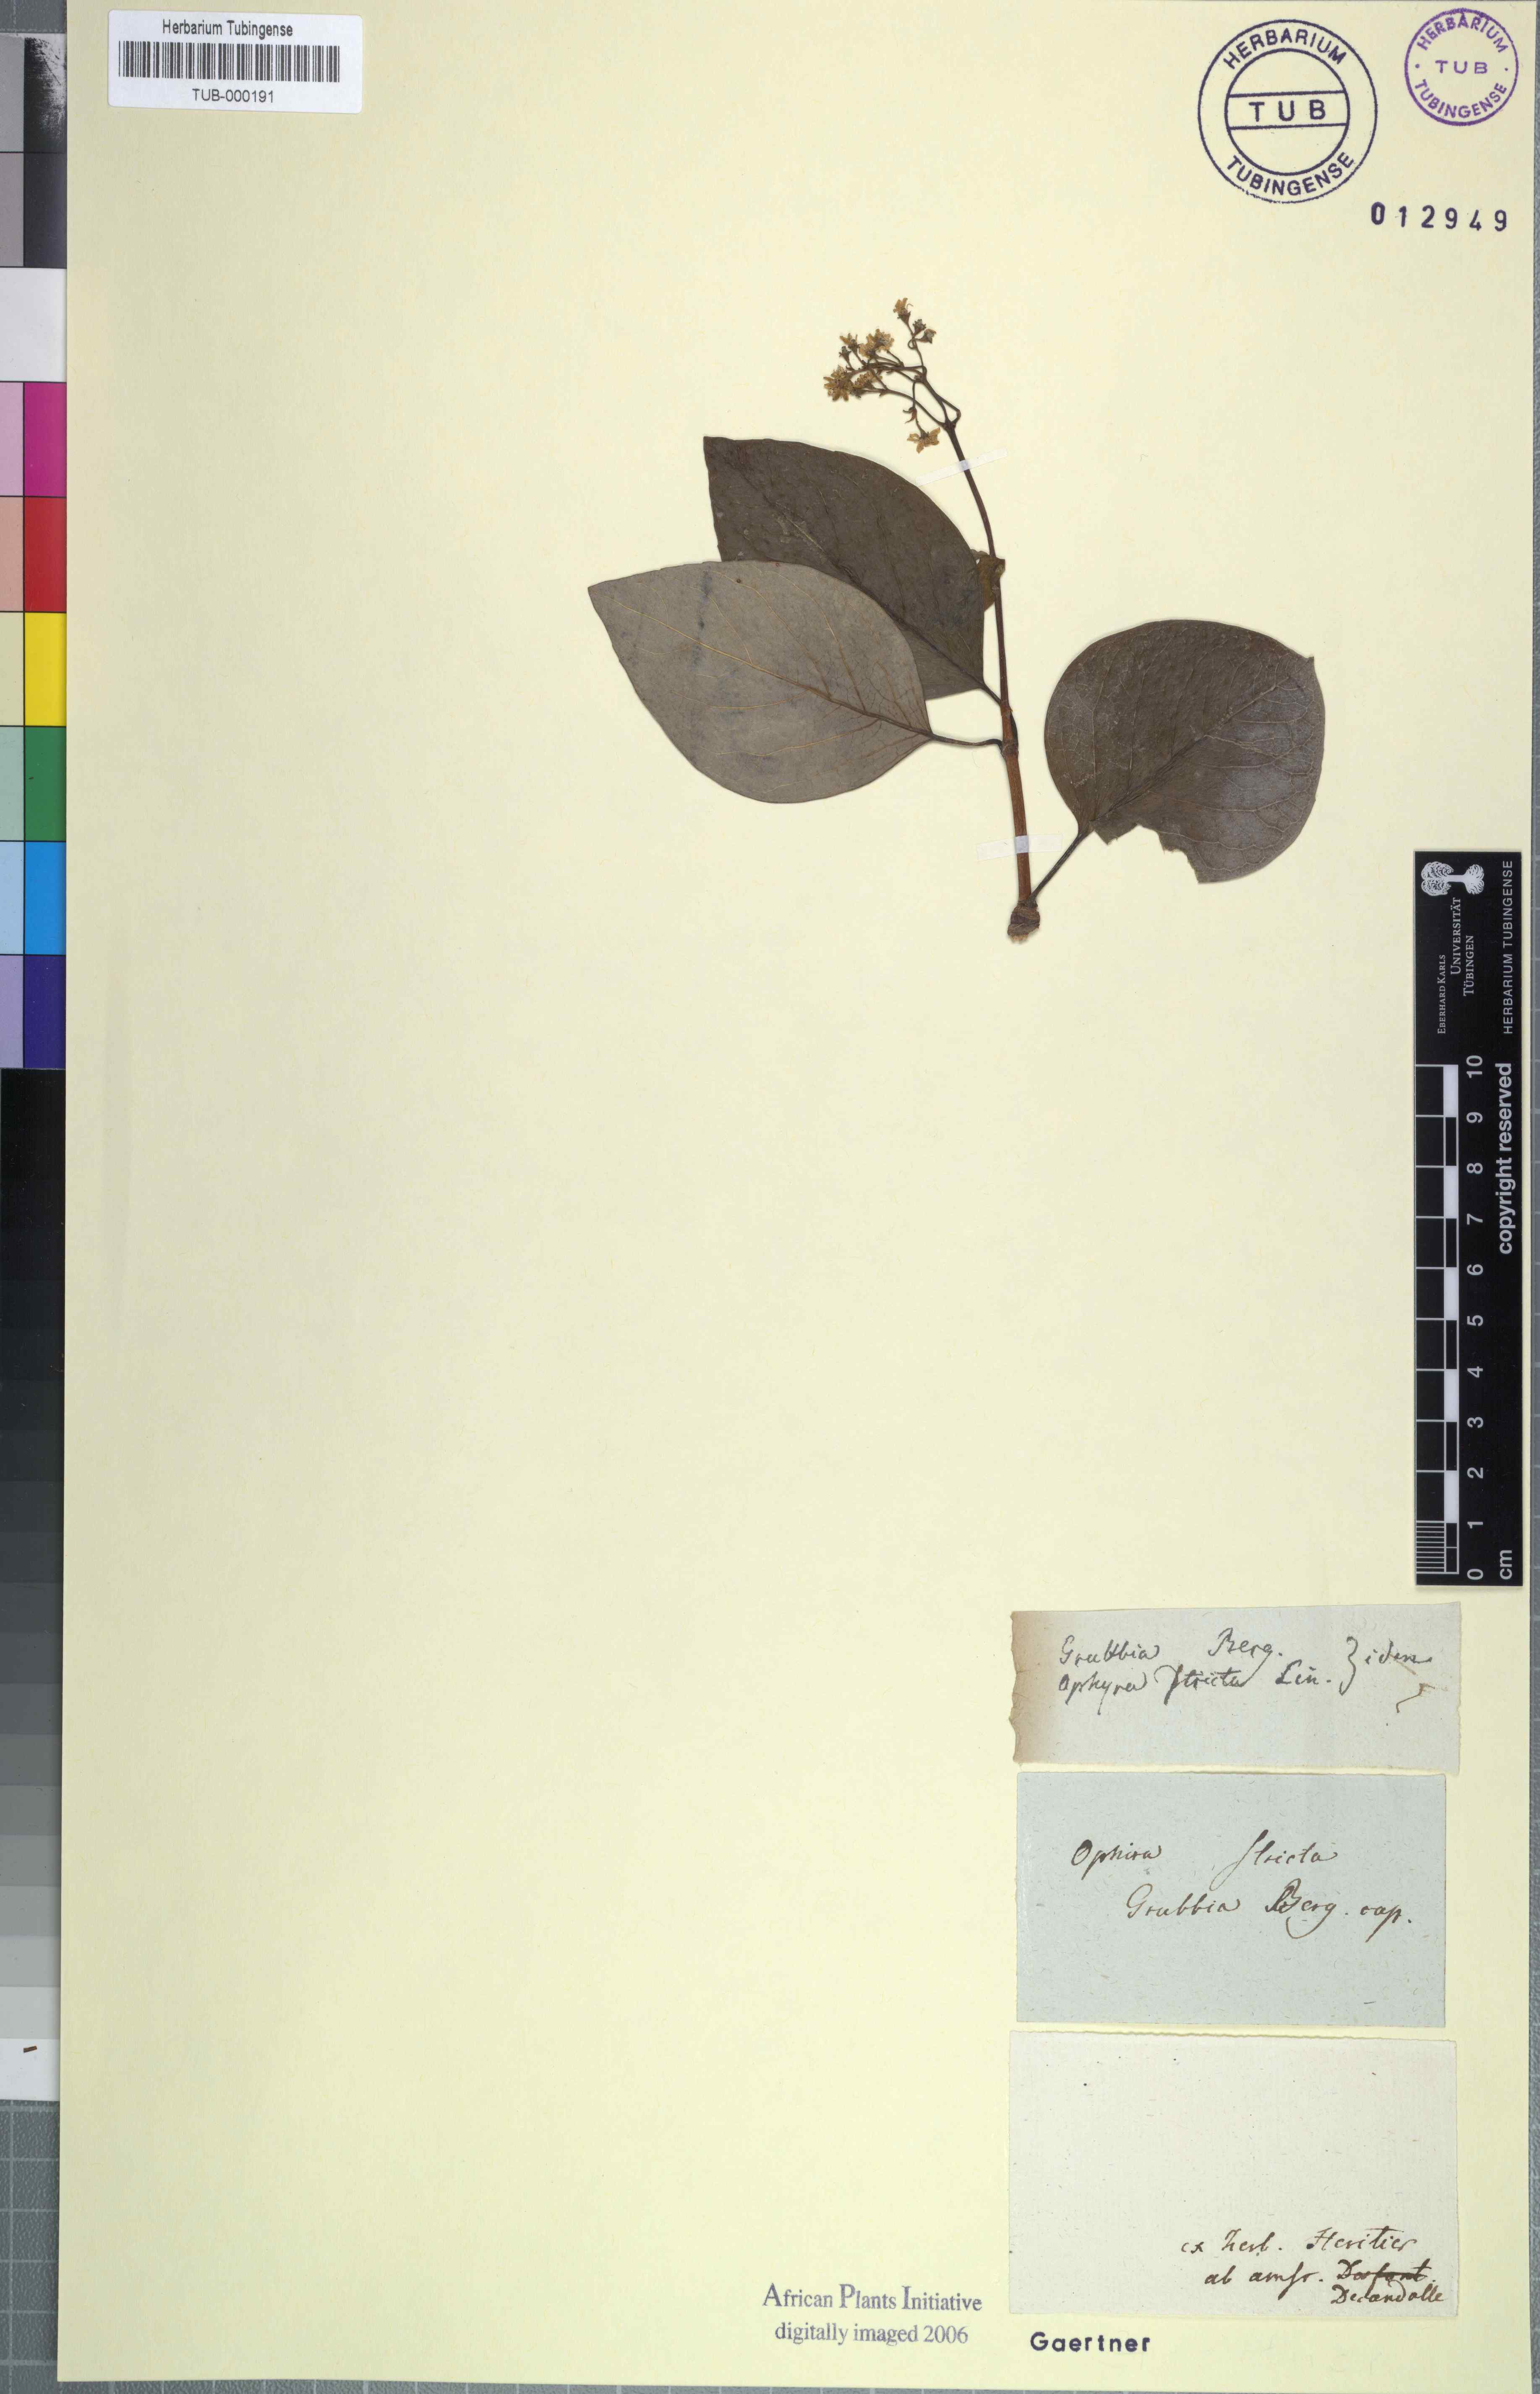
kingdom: Plantae
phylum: Tracheophyta
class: Magnoliopsida
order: Cornales
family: Grubbiaceae
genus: Grubbia
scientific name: Grubbia rosmarinifolia
